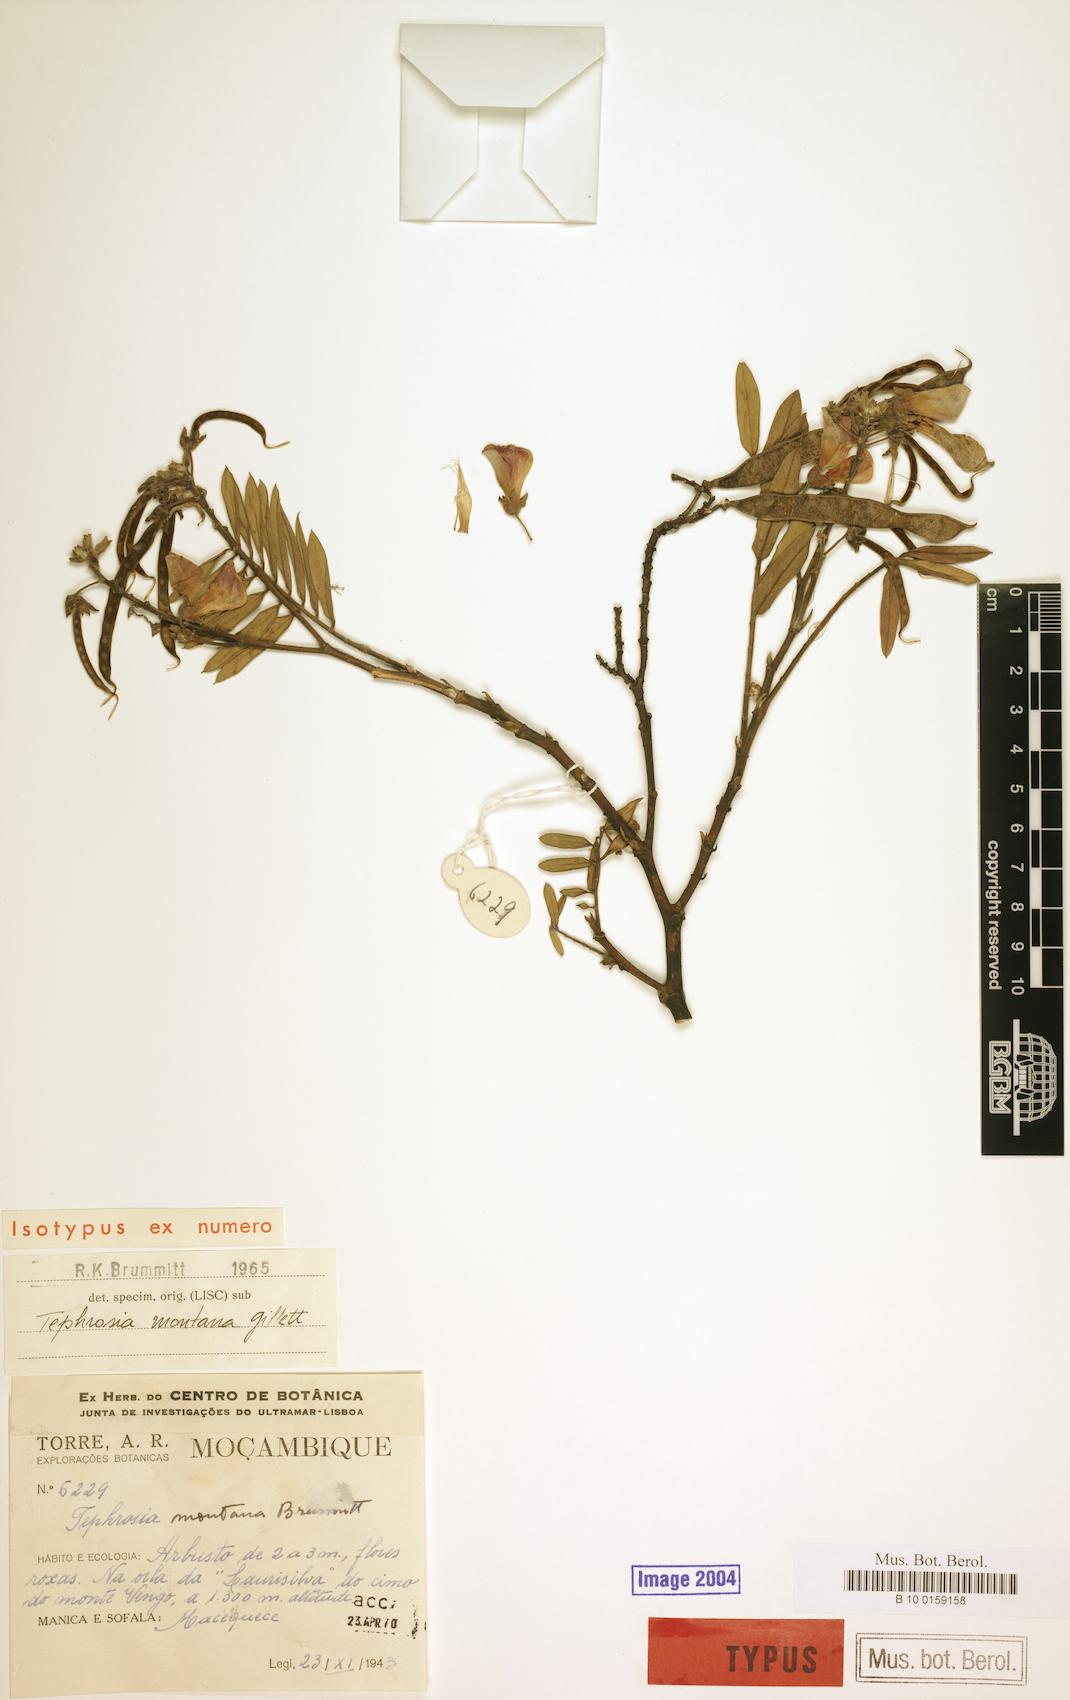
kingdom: Plantae
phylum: Tracheophyta
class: Magnoliopsida
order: Fabales
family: Fabaceae
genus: Tephrosia
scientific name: Tephrosia montana
